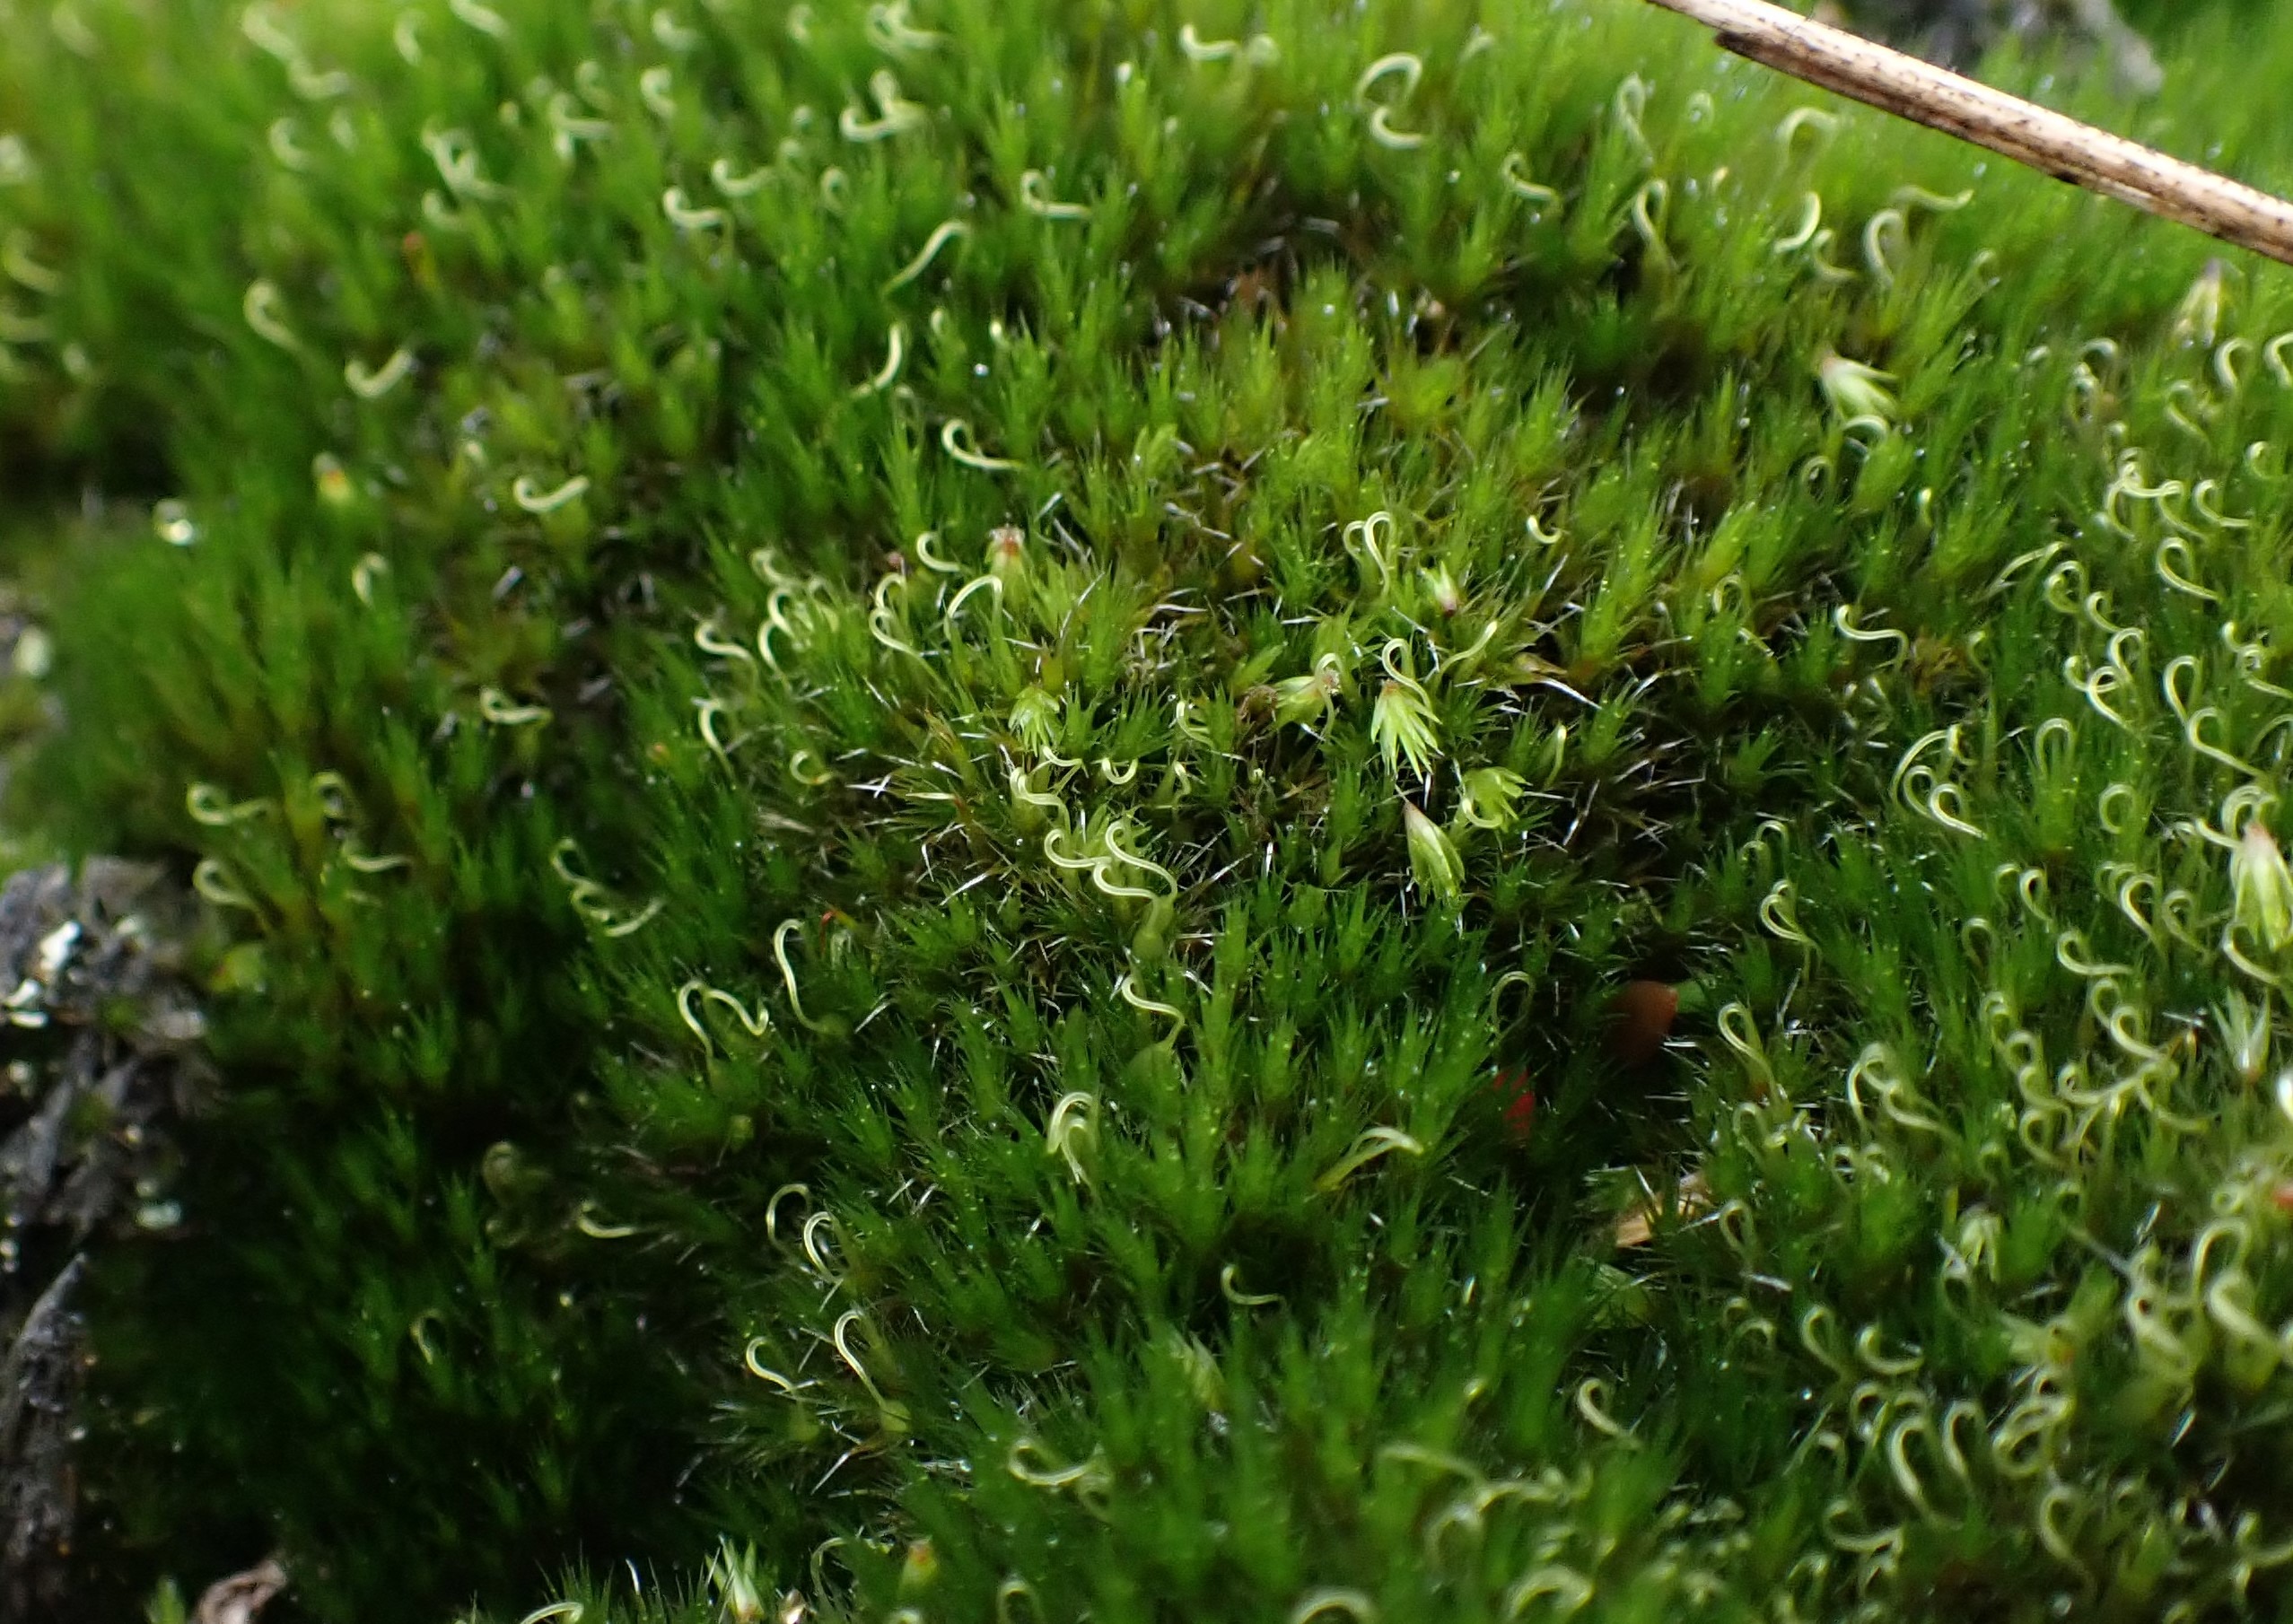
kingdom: Plantae
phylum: Bryophyta
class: Bryopsida
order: Dicranales
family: Leucobryaceae
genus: Campylopus
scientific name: Campylopus introflexus
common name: Stjerne-bredribbe
